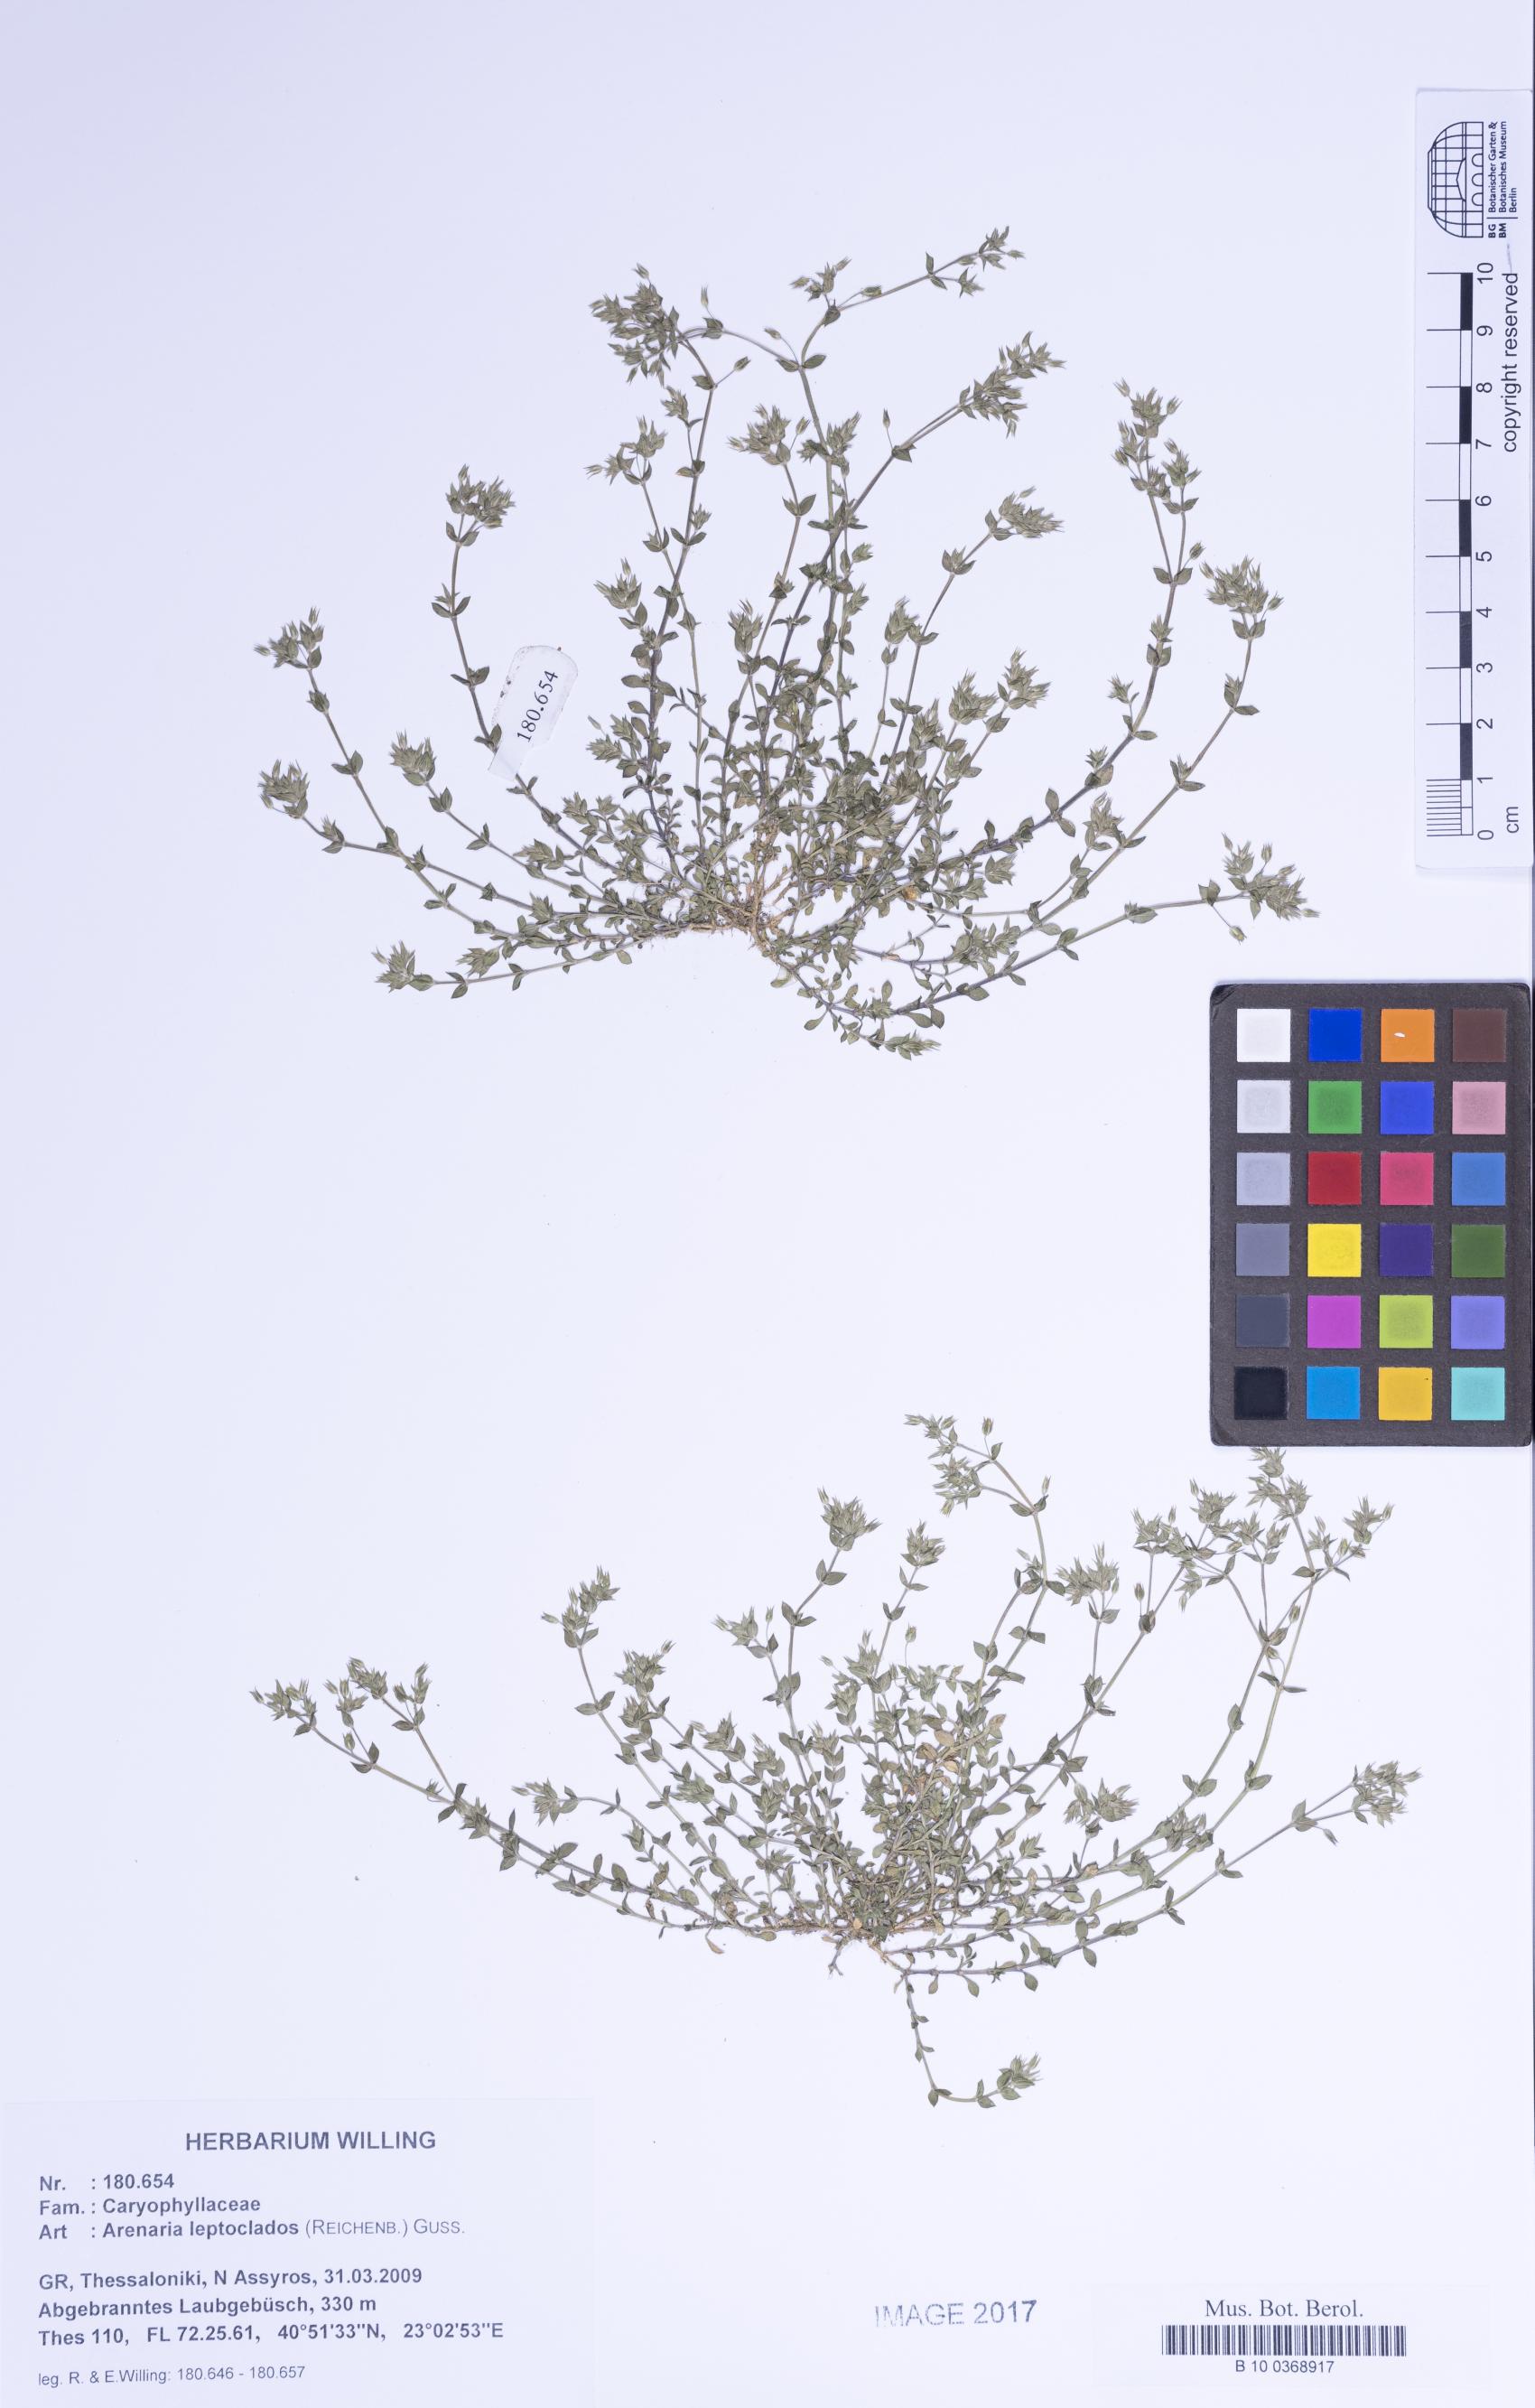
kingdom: Plantae
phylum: Tracheophyta
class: Magnoliopsida
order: Caryophyllales
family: Caryophyllaceae
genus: Arenaria
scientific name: Arenaria leptoclados
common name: Thyme-leaved sandwort
